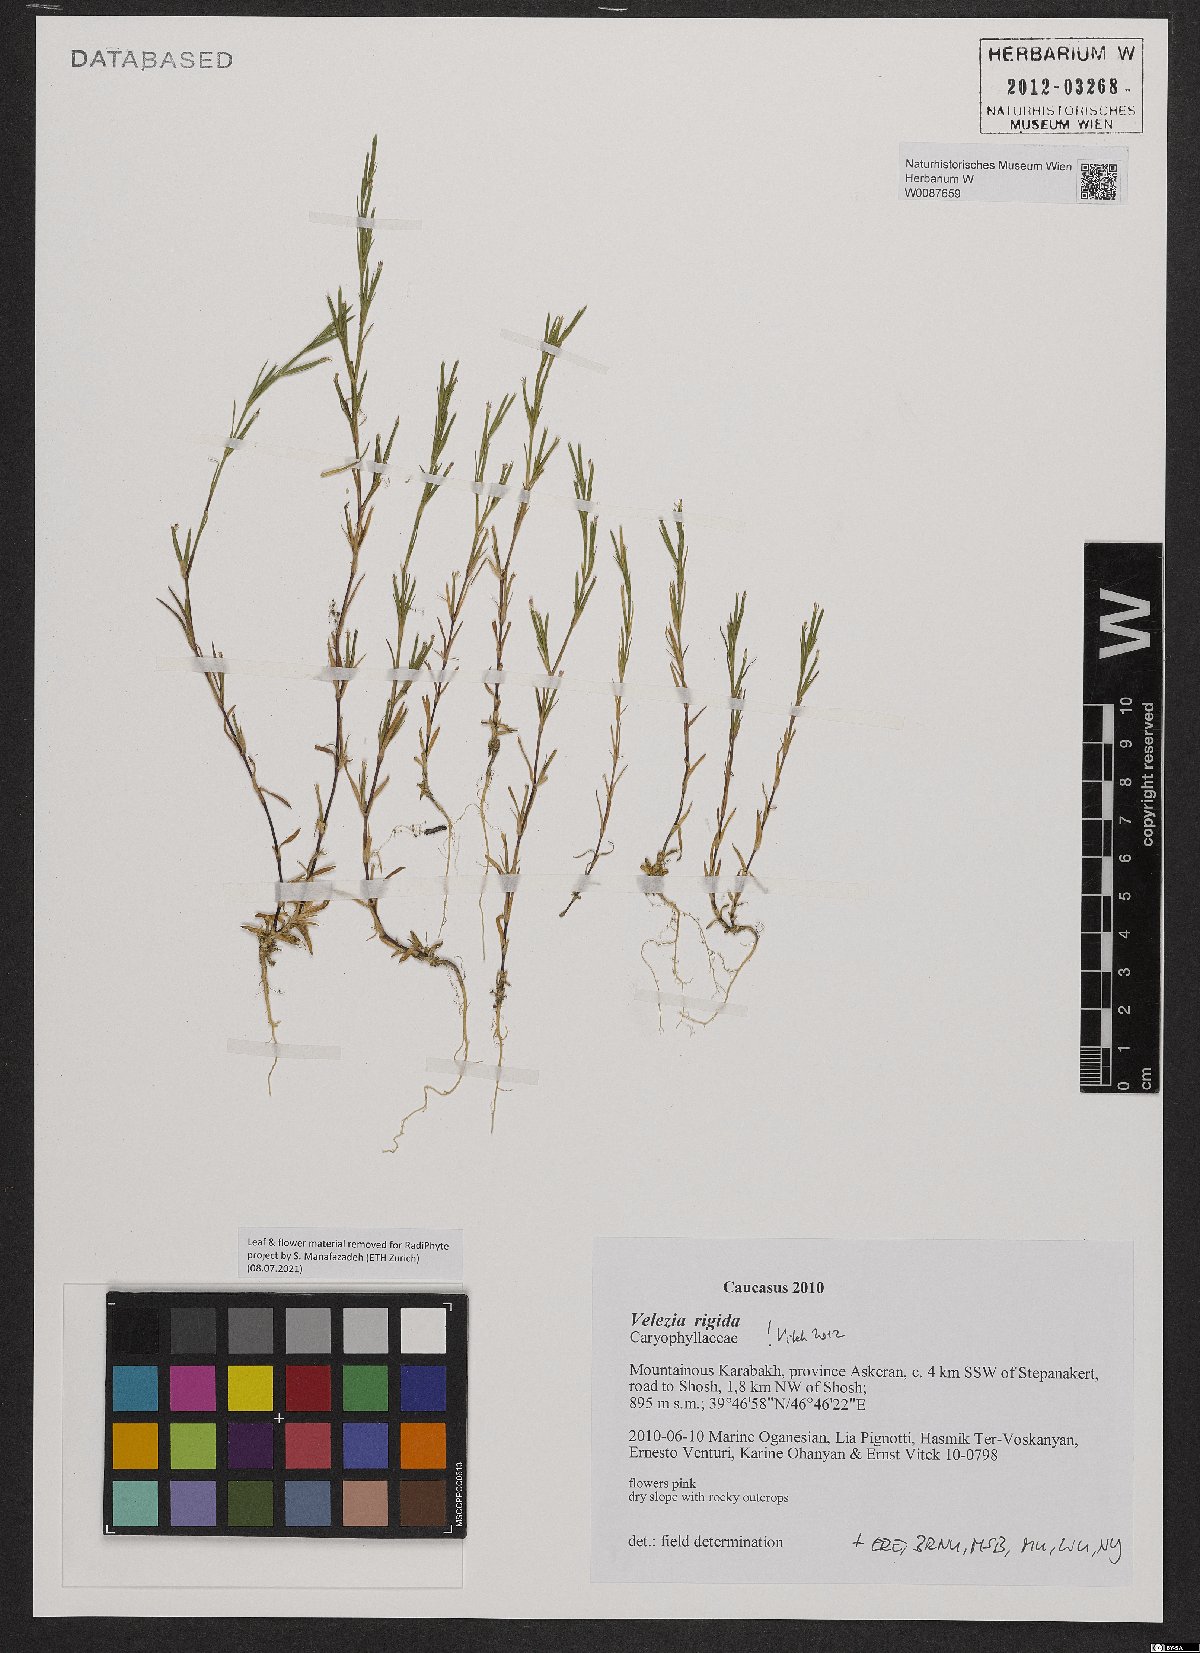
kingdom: Plantae
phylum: Tracheophyta
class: Magnoliopsida
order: Caryophyllales
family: Caryophyllaceae
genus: Dianthus
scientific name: Dianthus nudiflorus
